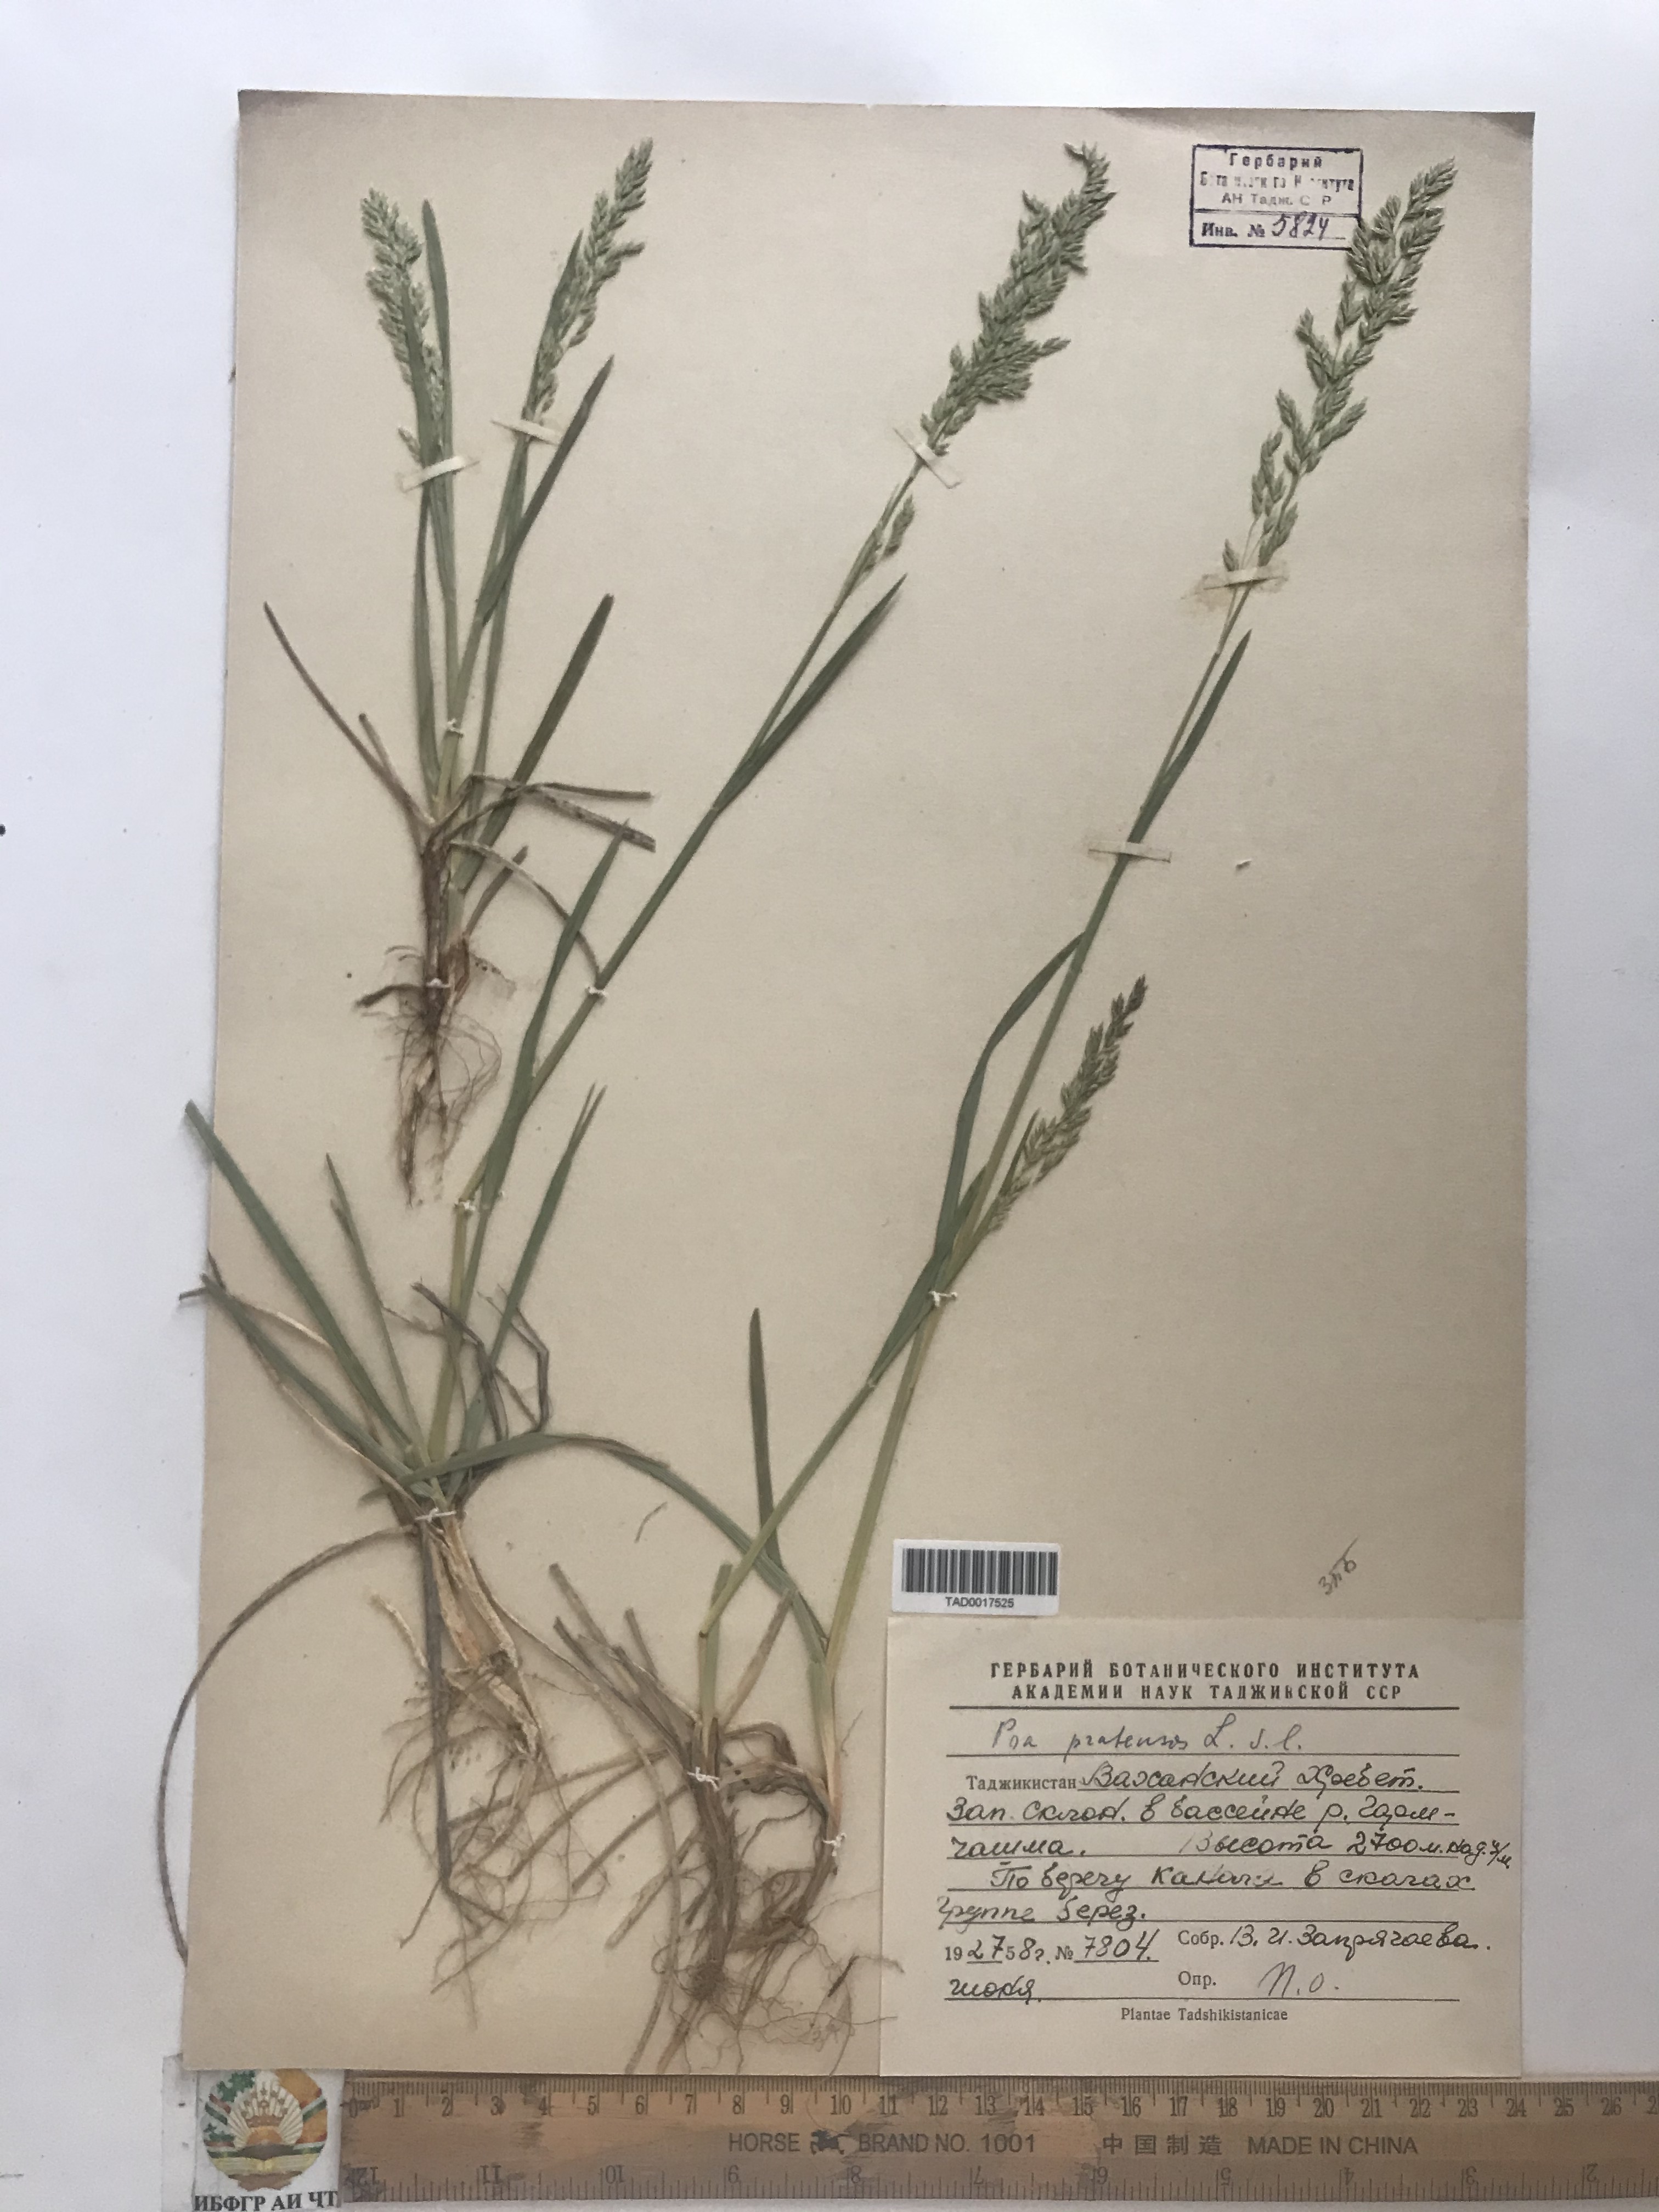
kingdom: Plantae
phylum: Tracheophyta
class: Liliopsida
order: Poales
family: Poaceae
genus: Poa
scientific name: Poa pratensis
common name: Kentucky bluegrass
